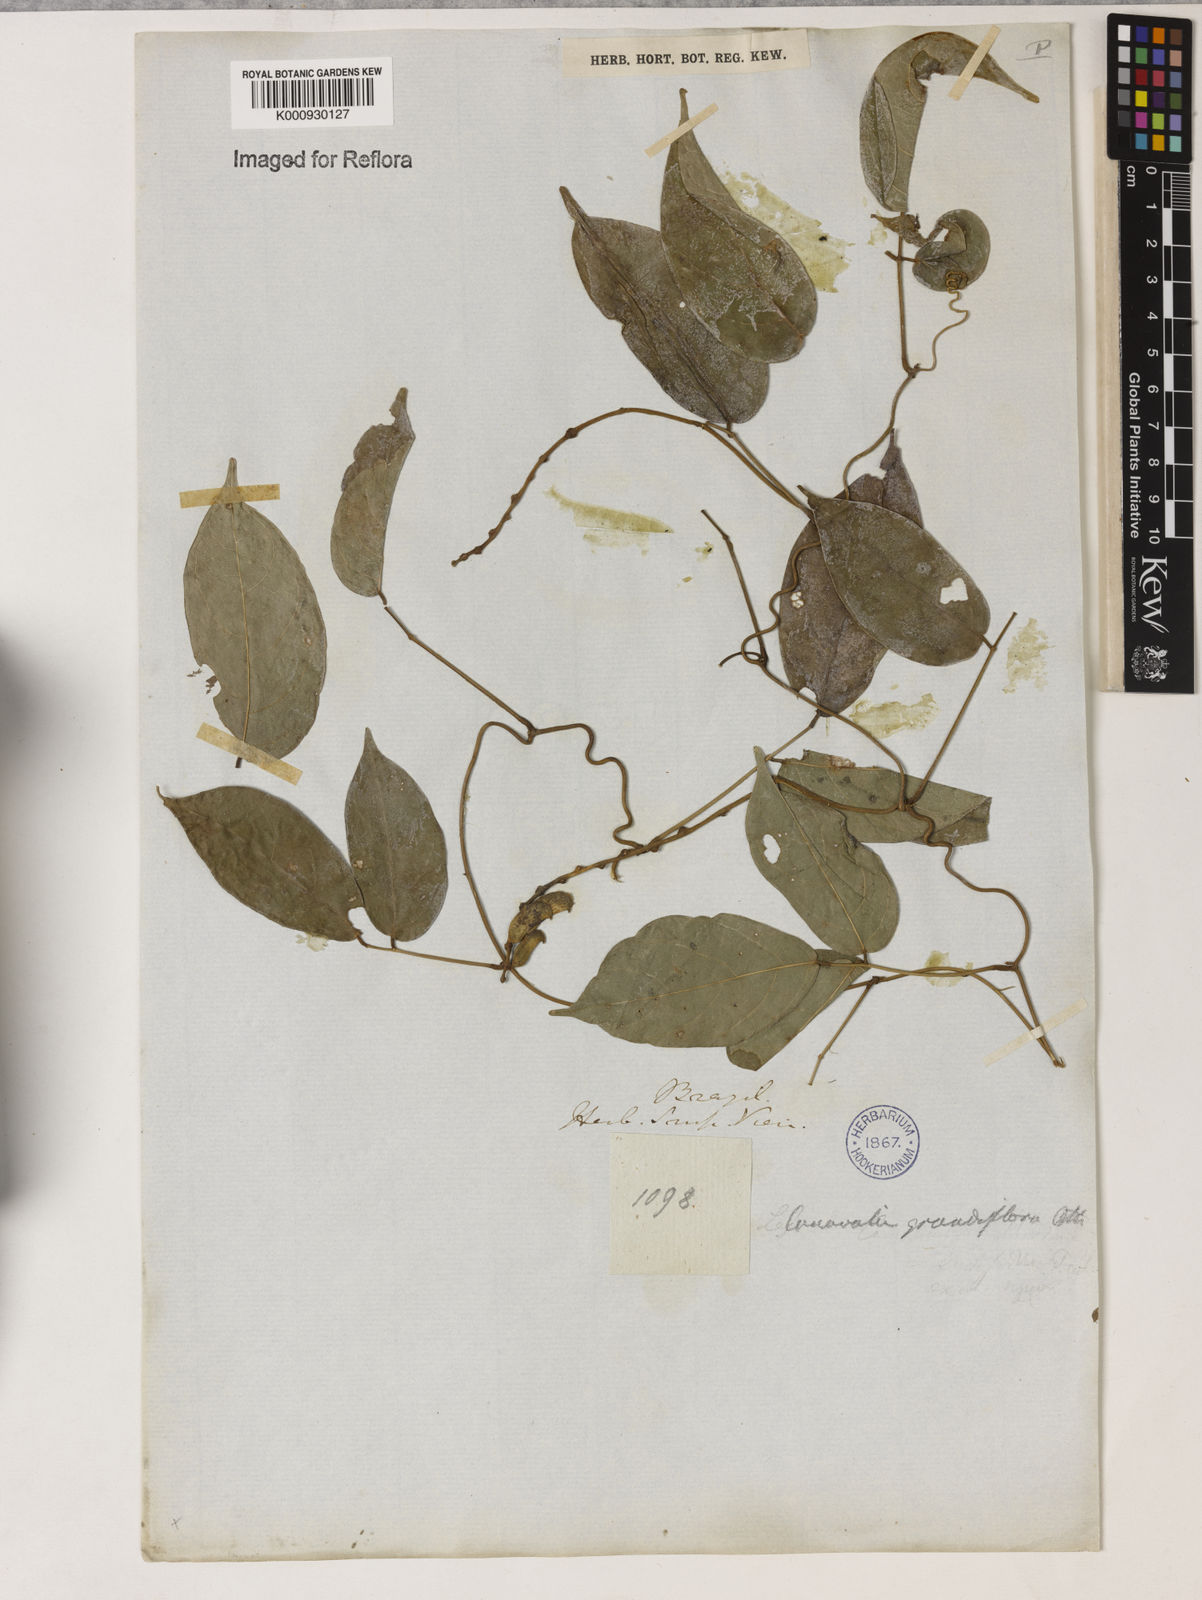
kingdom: Plantae
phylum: Tracheophyta
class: Magnoliopsida
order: Fabales
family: Fabaceae
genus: Canavalia
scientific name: Canavalia grandiflora
